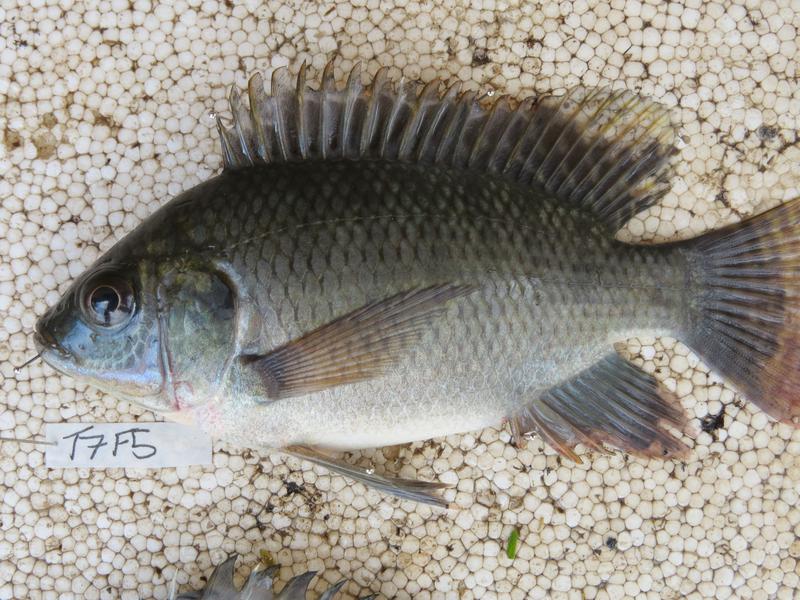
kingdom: Animalia
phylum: Chordata
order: Perciformes
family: Cichlidae
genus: Oreochromis
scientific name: Oreochromis niloticus
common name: Nile tilapia
